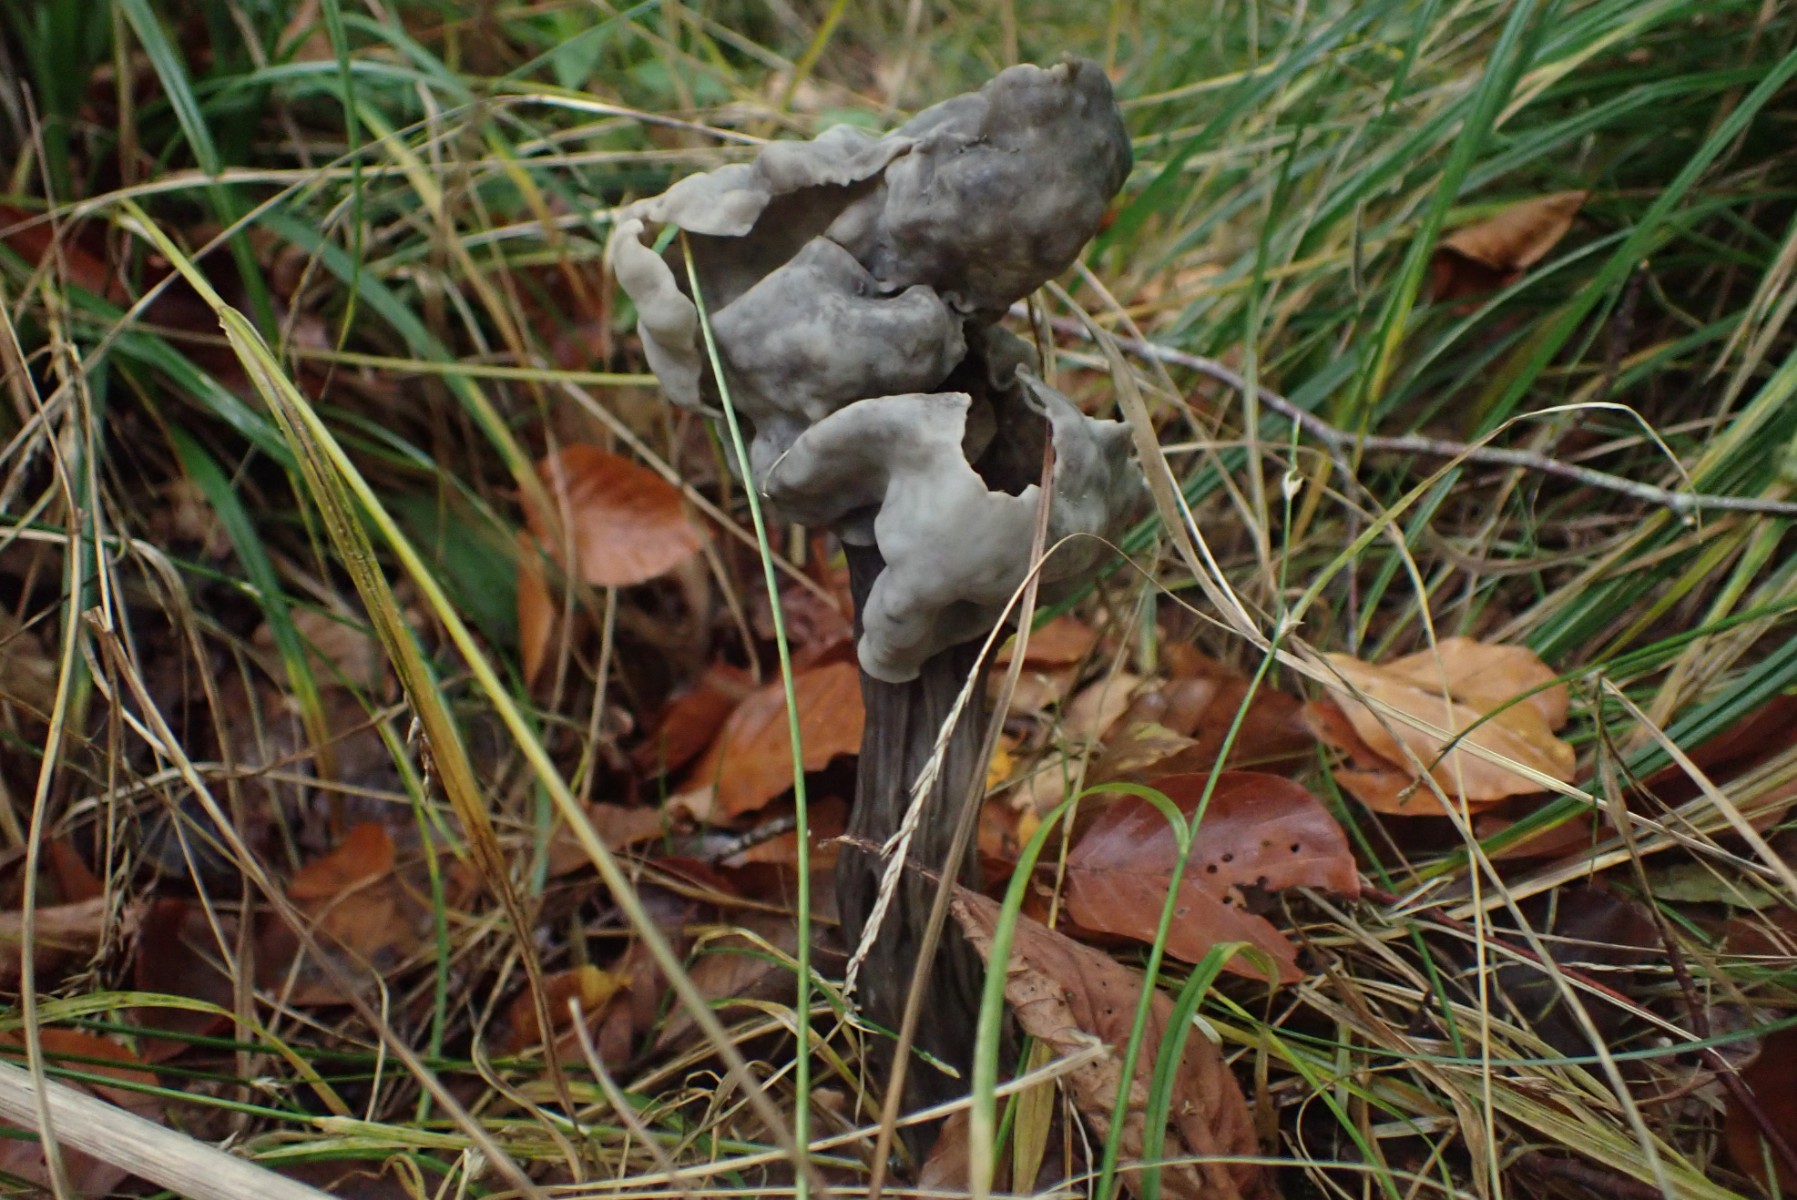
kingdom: Fungi
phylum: Ascomycota
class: Pezizomycetes
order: Pezizales
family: Helvellaceae
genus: Helvella
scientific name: Helvella lacunosa
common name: grubet foldhat
